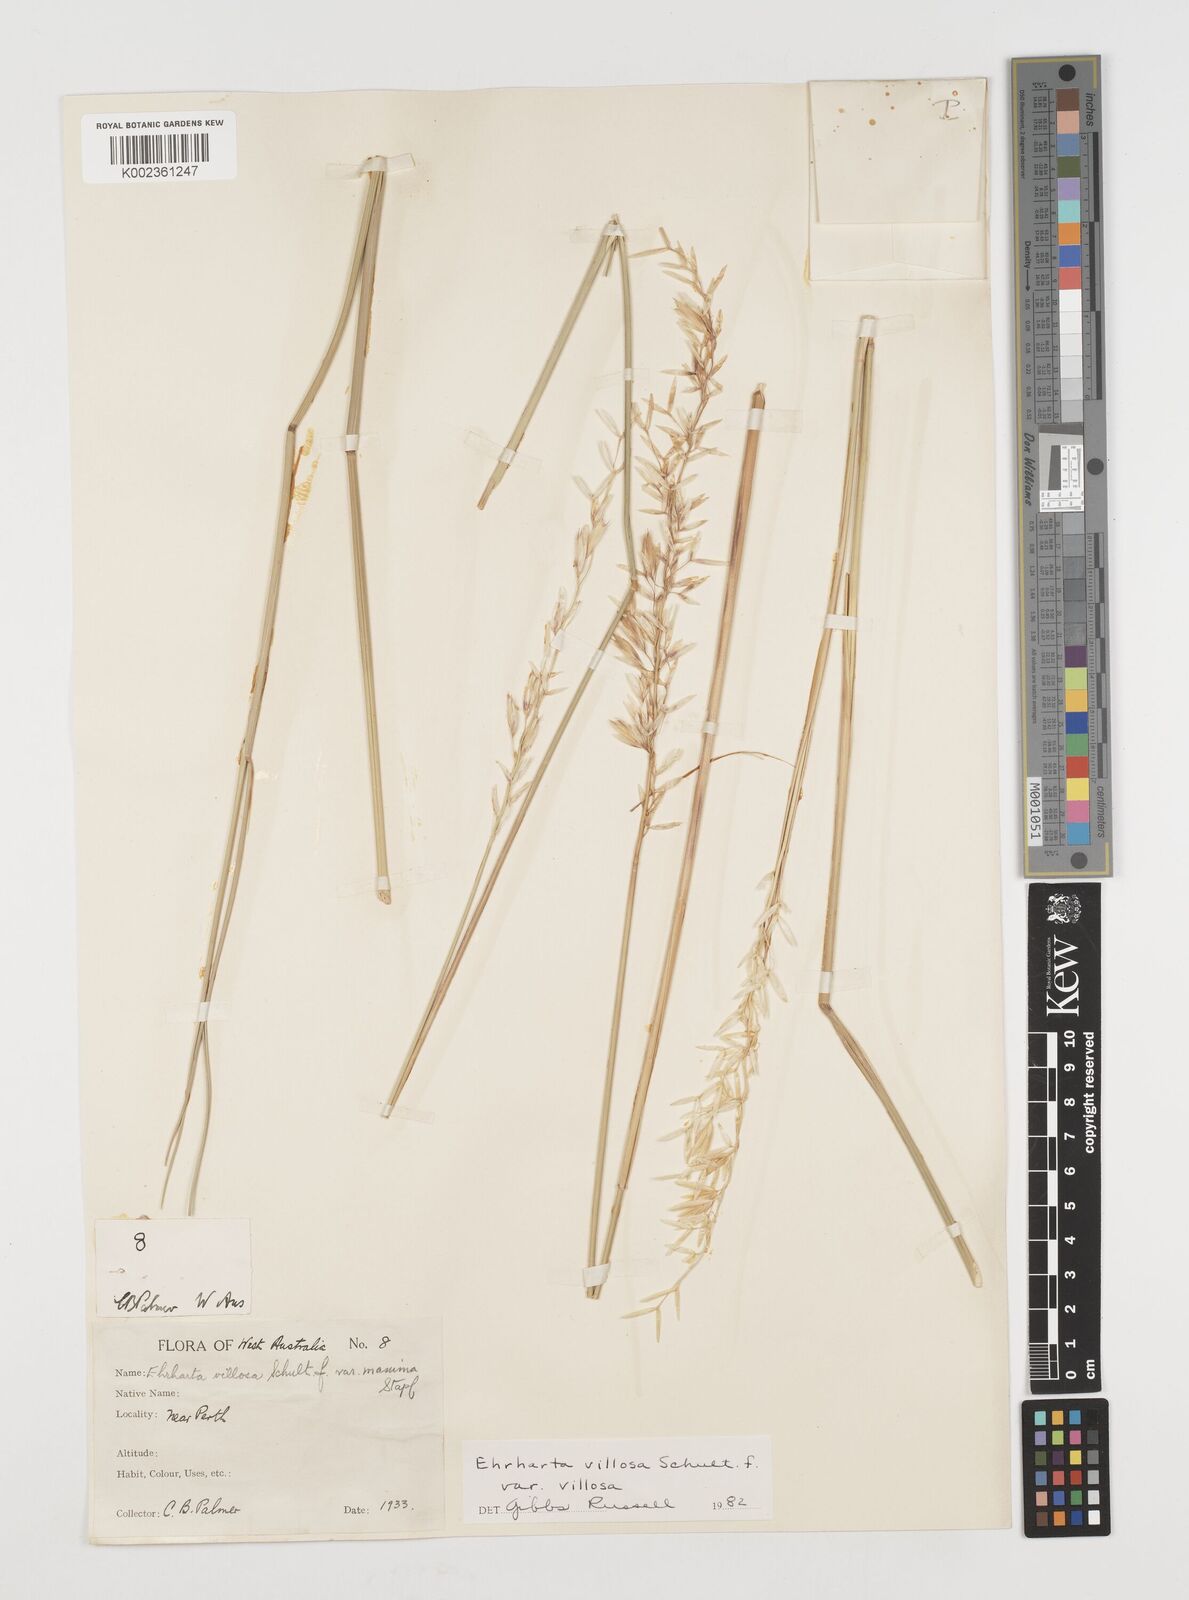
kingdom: Plantae
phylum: Tracheophyta
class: Liliopsida
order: Poales
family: Poaceae
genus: Ehrharta
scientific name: Ehrharta villosa
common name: Pyp grass
